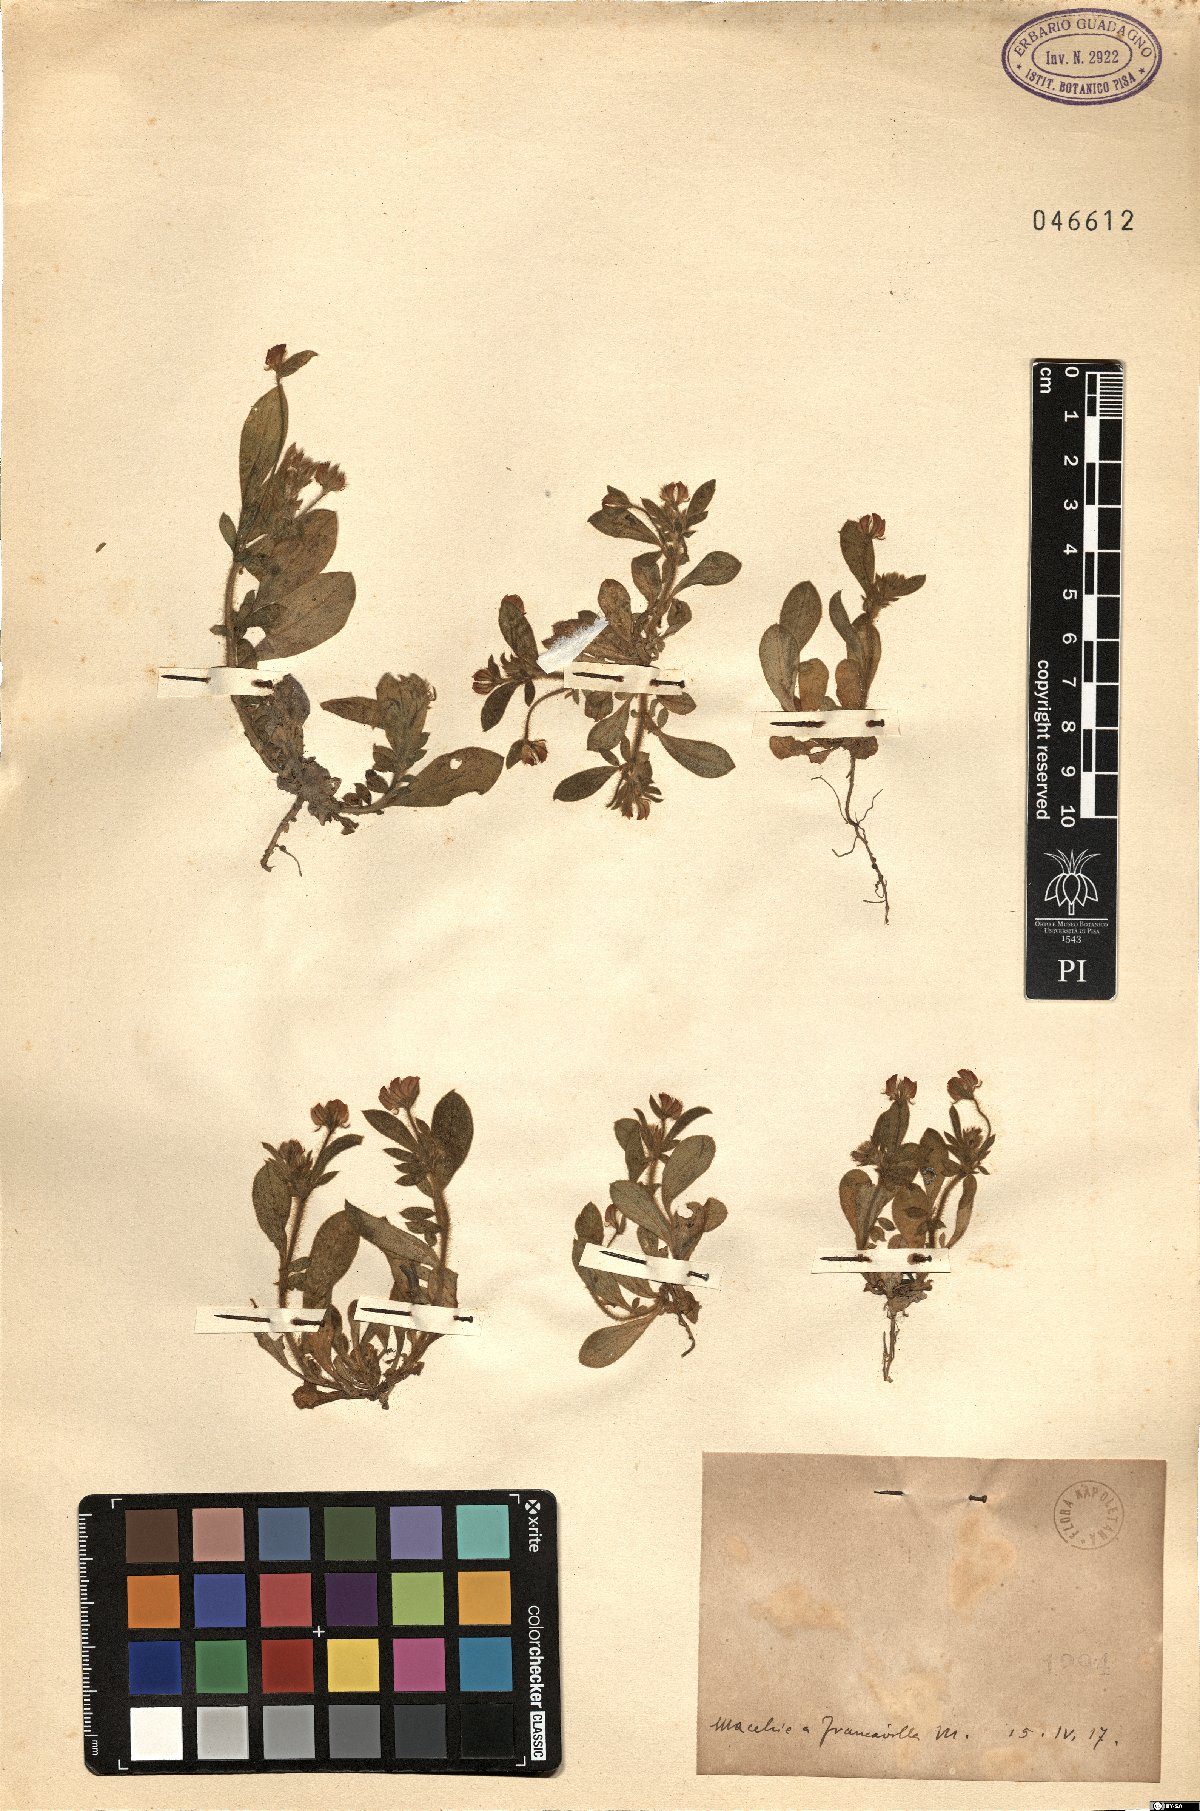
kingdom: Plantae
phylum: Tracheophyta
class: Magnoliopsida
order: Fabales
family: Fabaceae
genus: Anthyllis
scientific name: Anthyllis Hymenocarpos spec
